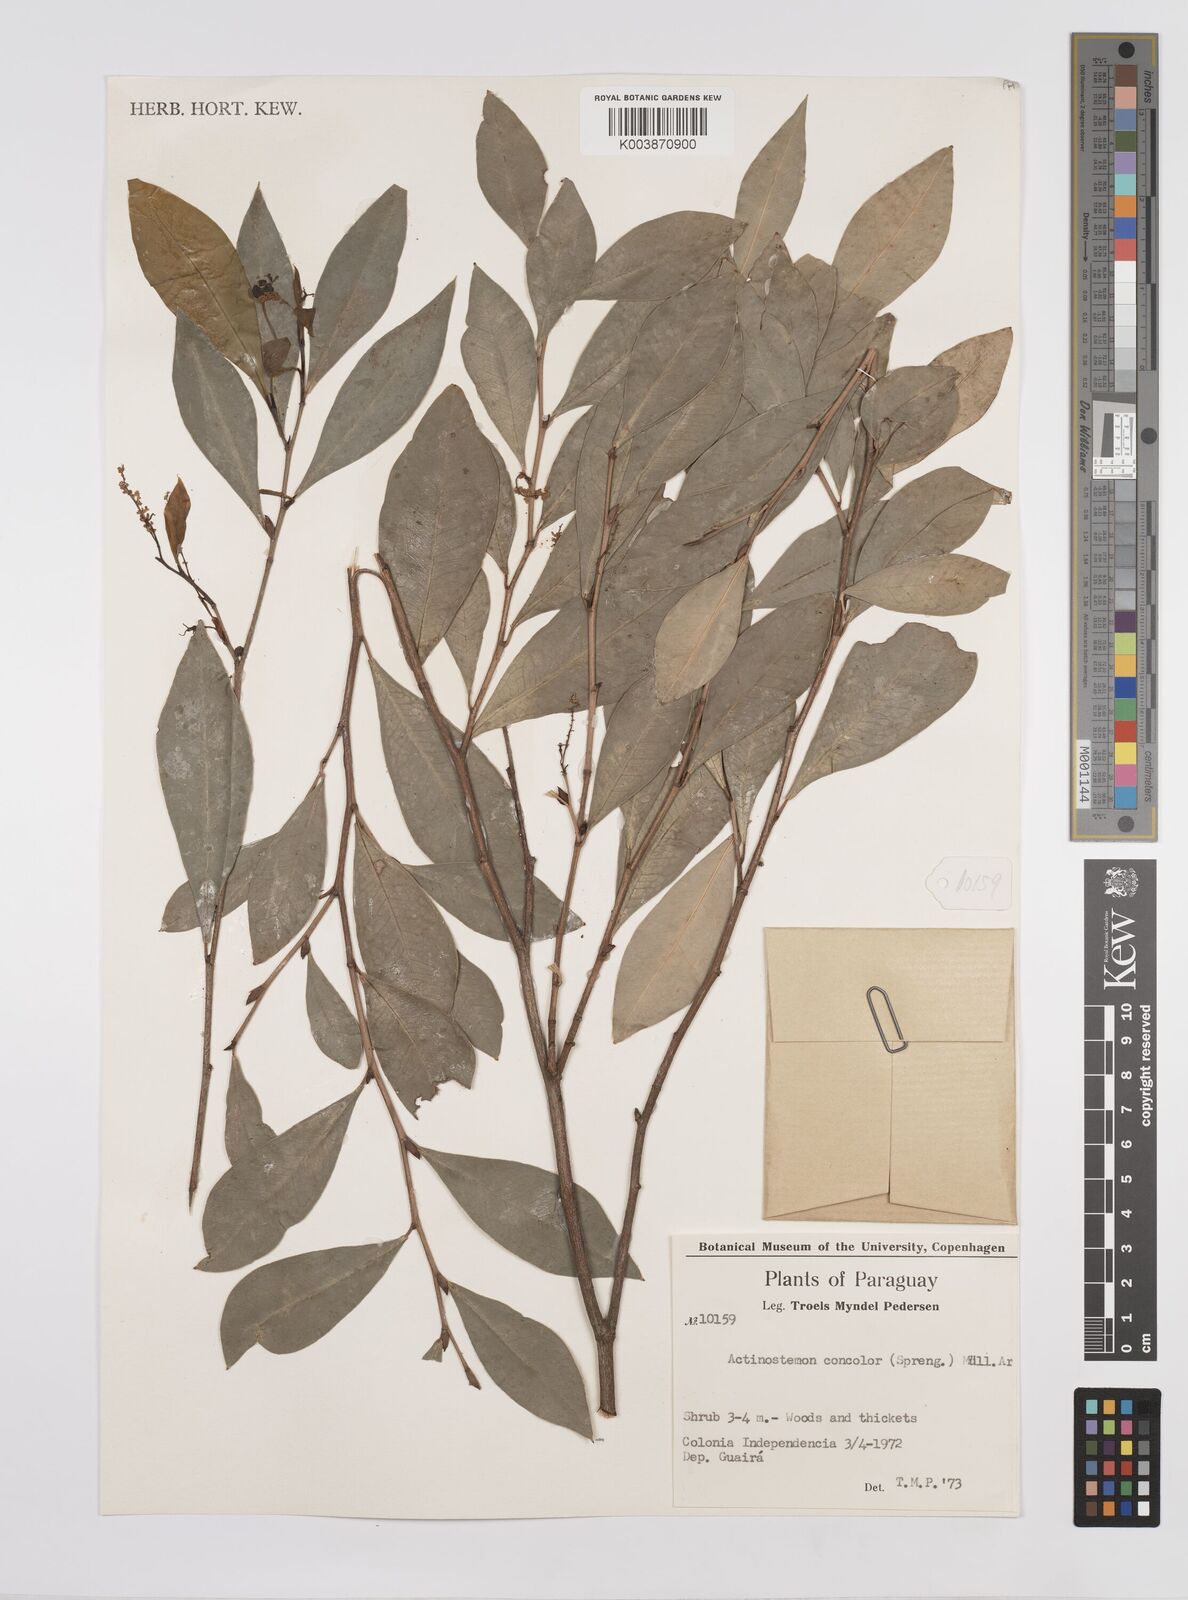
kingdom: Plantae
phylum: Tracheophyta
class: Magnoliopsida
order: Malpighiales
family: Euphorbiaceae
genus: Actinostemon
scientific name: Actinostemon concolor
